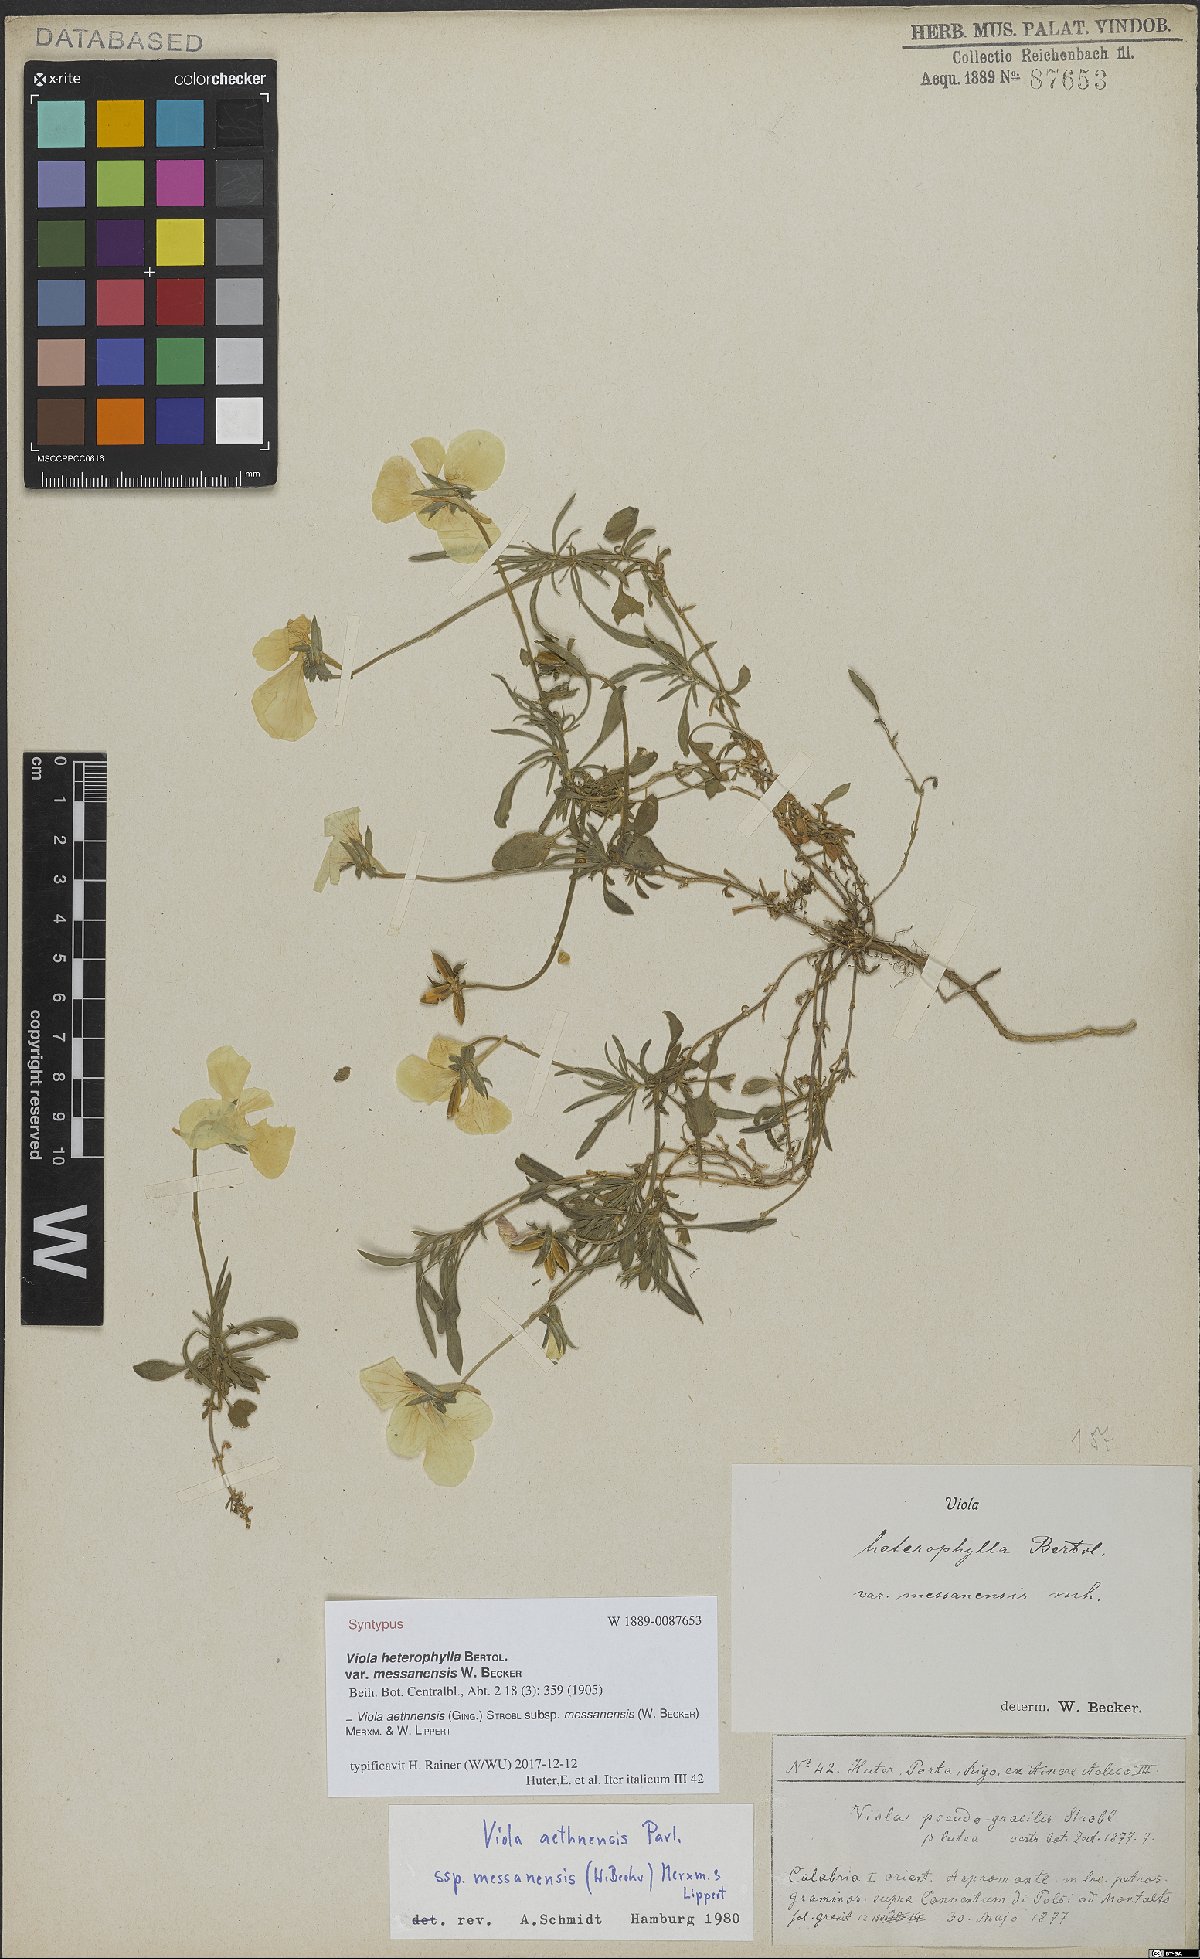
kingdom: Plantae
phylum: Tracheophyta
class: Magnoliopsida
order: Malpighiales
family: Violaceae
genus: Viola
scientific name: Viola aethnensis
